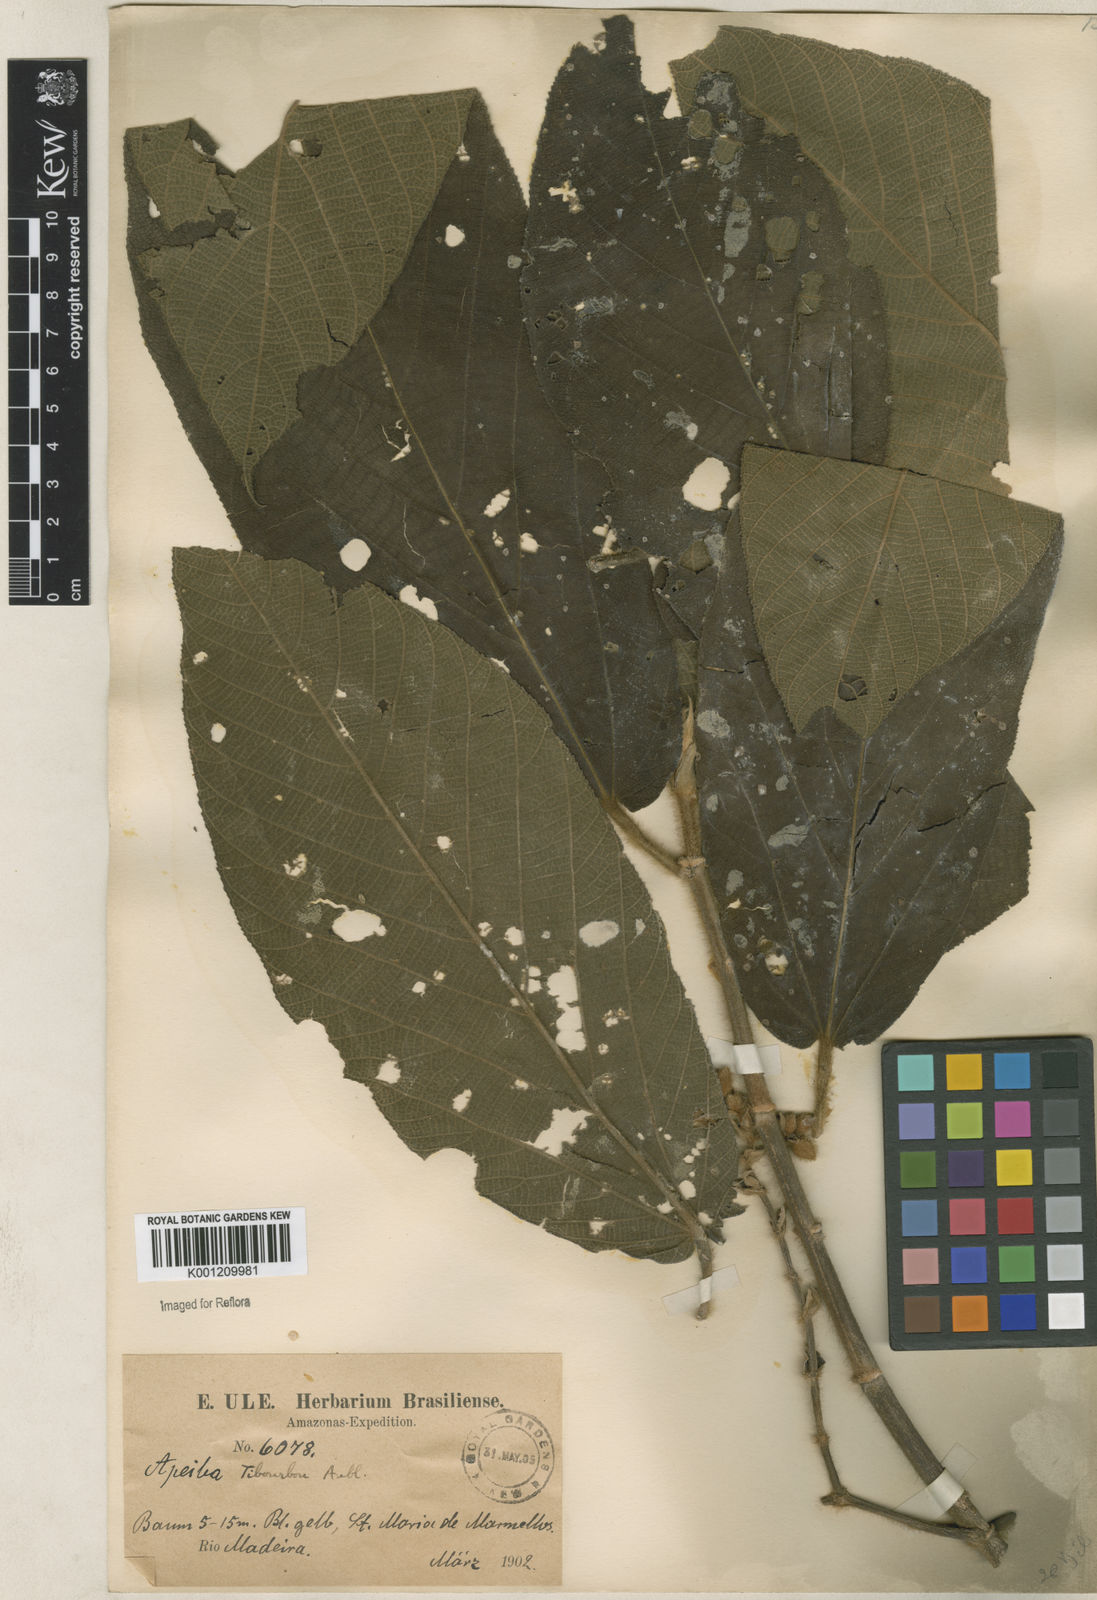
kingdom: Plantae
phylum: Tracheophyta
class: Magnoliopsida
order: Malvales
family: Malvaceae
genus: Apeiba
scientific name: Apeiba tibourbou
